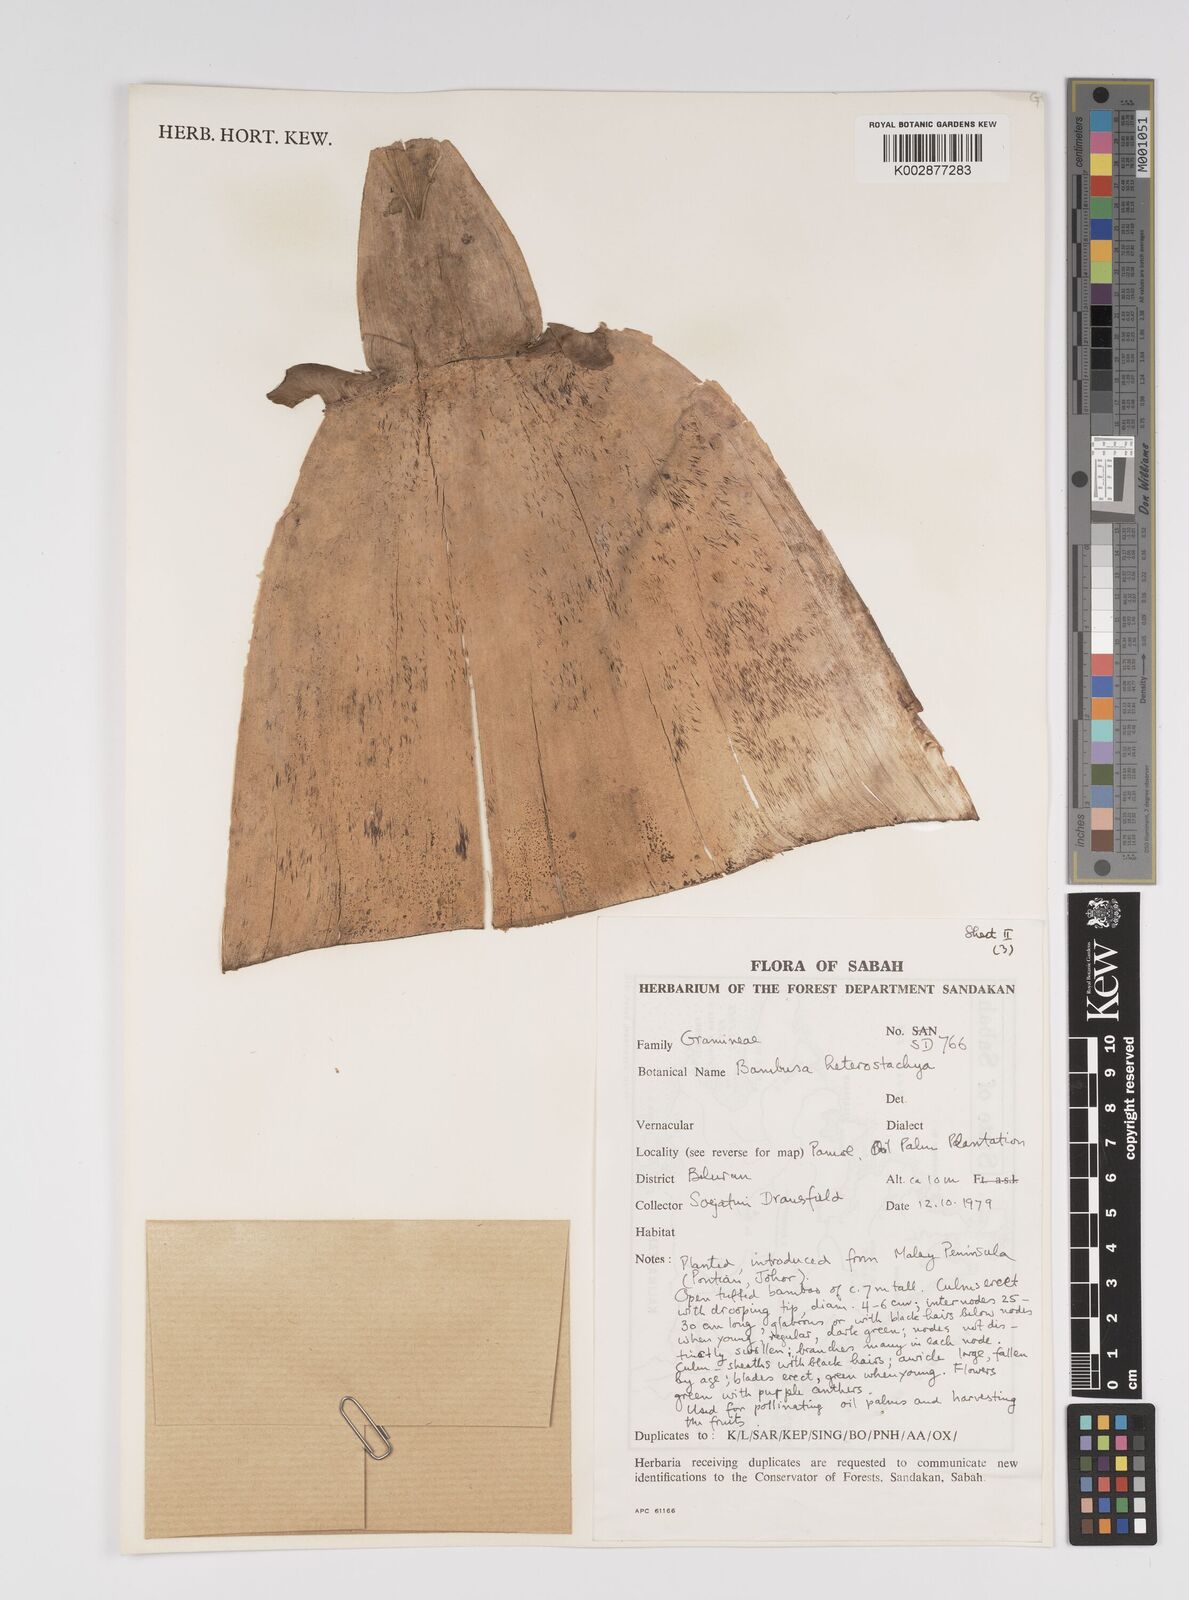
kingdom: Plantae
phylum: Tracheophyta
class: Liliopsida
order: Poales
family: Poaceae
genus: Bambusa
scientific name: Bambusa heterostachya
